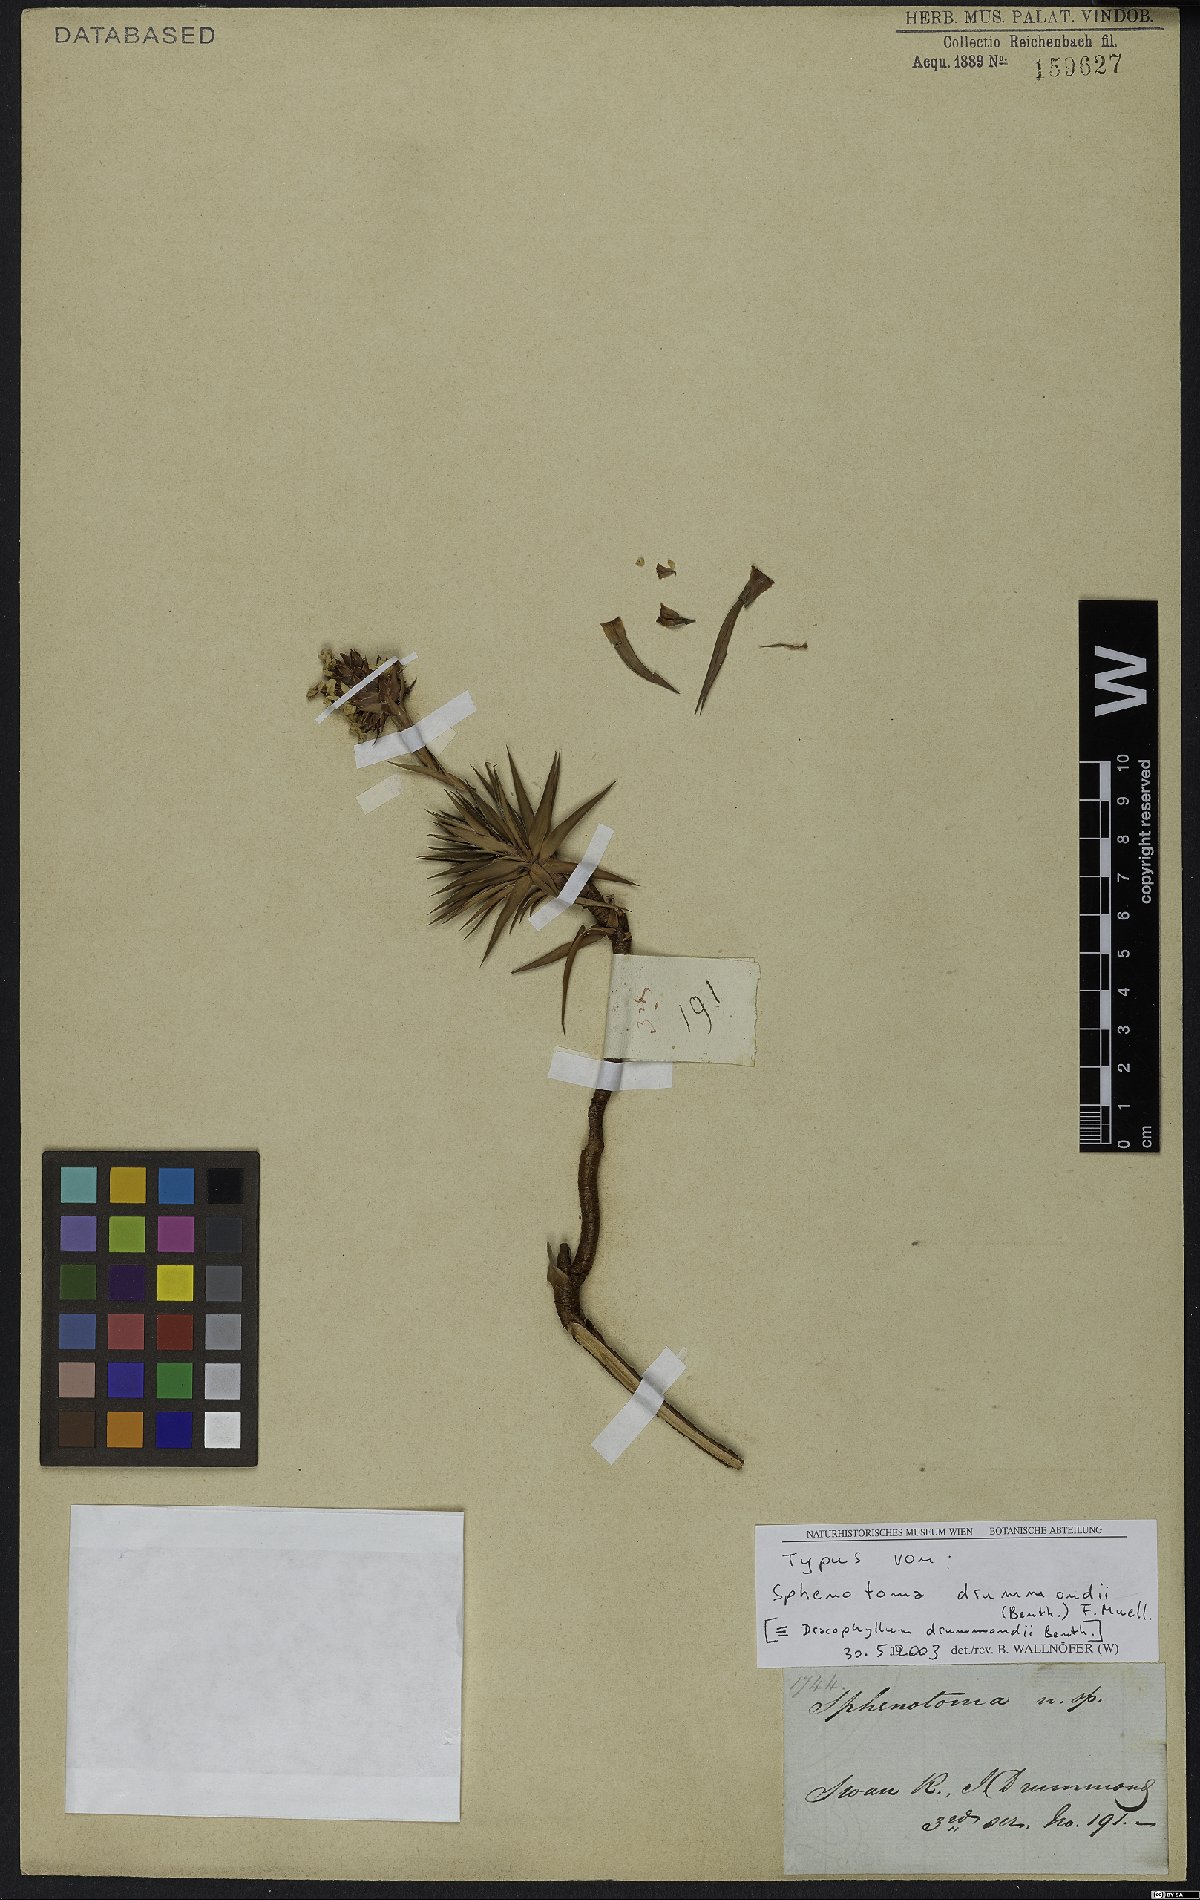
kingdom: Plantae
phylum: Tracheophyta
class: Magnoliopsida
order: Ericales
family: Ericaceae
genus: Sphenotoma
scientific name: Sphenotoma drummondii
